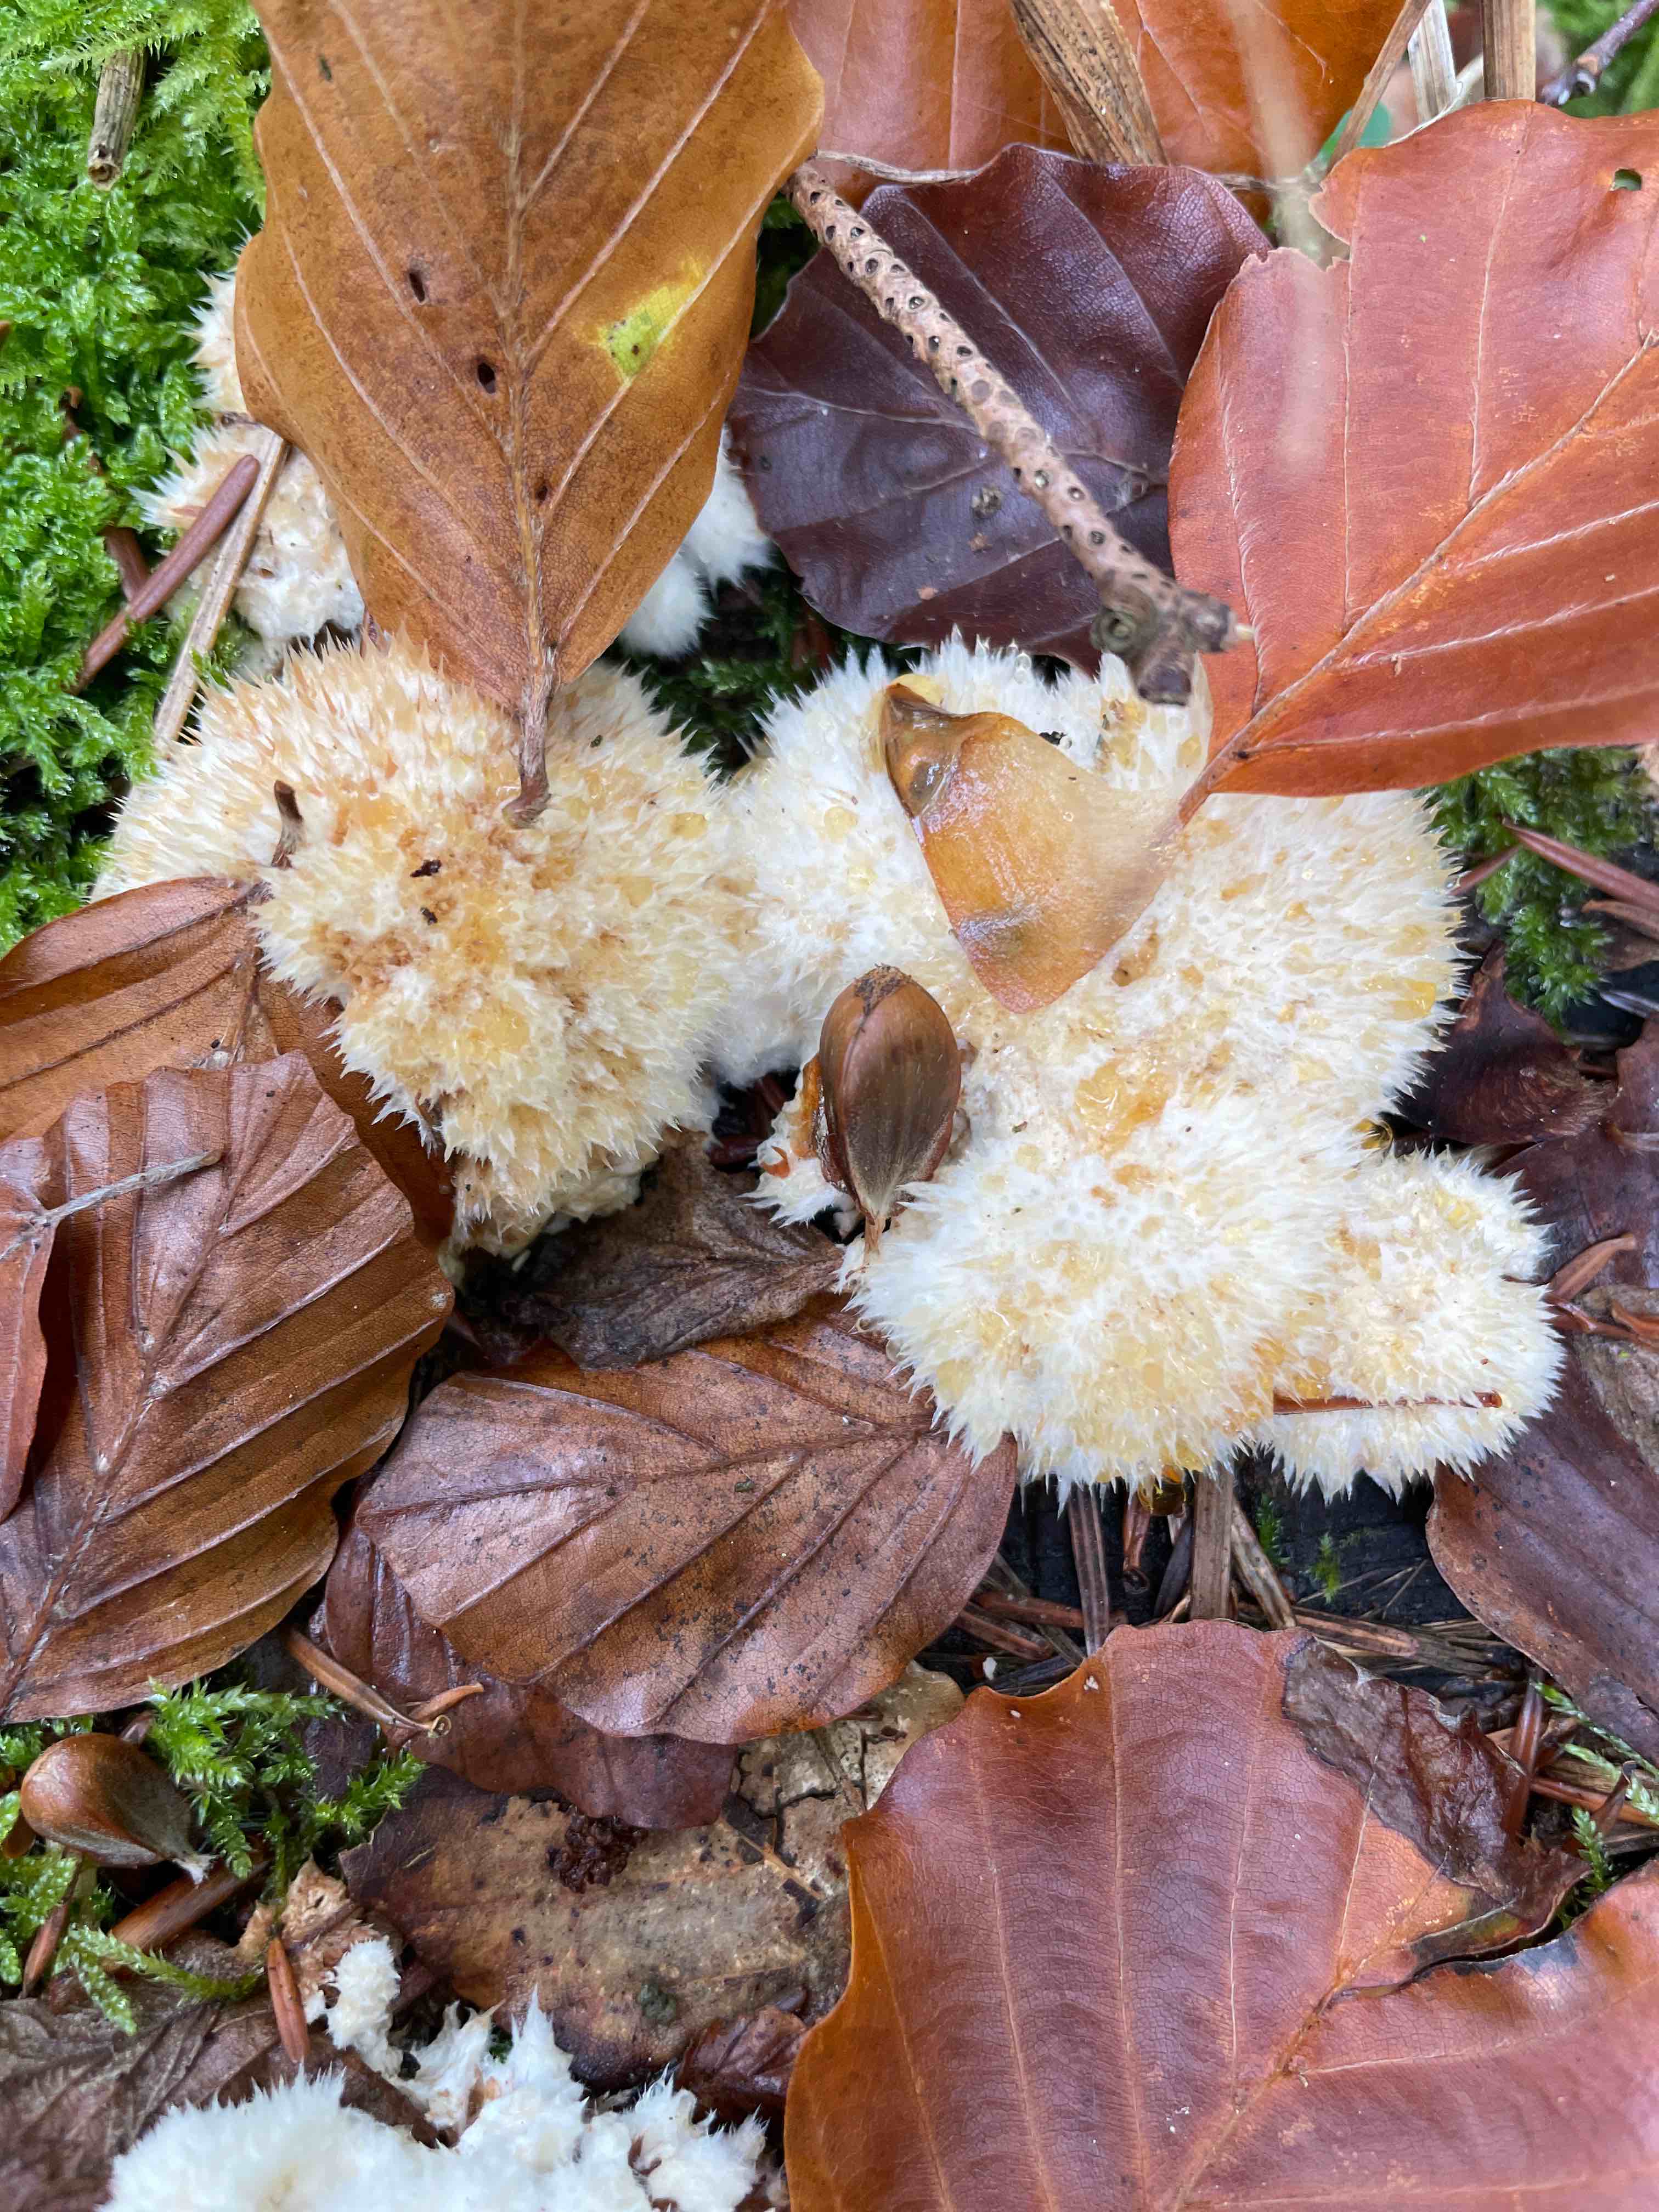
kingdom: Fungi
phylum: Basidiomycota
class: Agaricomycetes
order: Polyporales
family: Dacryobolaceae
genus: Postia
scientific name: Postia ptychogaster
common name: støvende kødporesvamp
